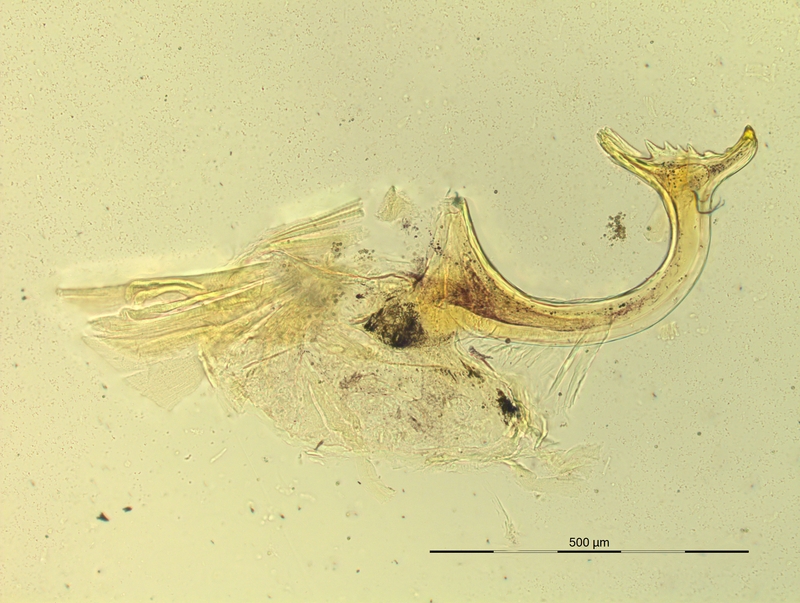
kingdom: Animalia
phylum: Arthropoda
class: Diplopoda
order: Chordeumatida
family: Craspedosomatidae
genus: Pyrgocyphosoma
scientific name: Pyrgocyphosoma titianum
